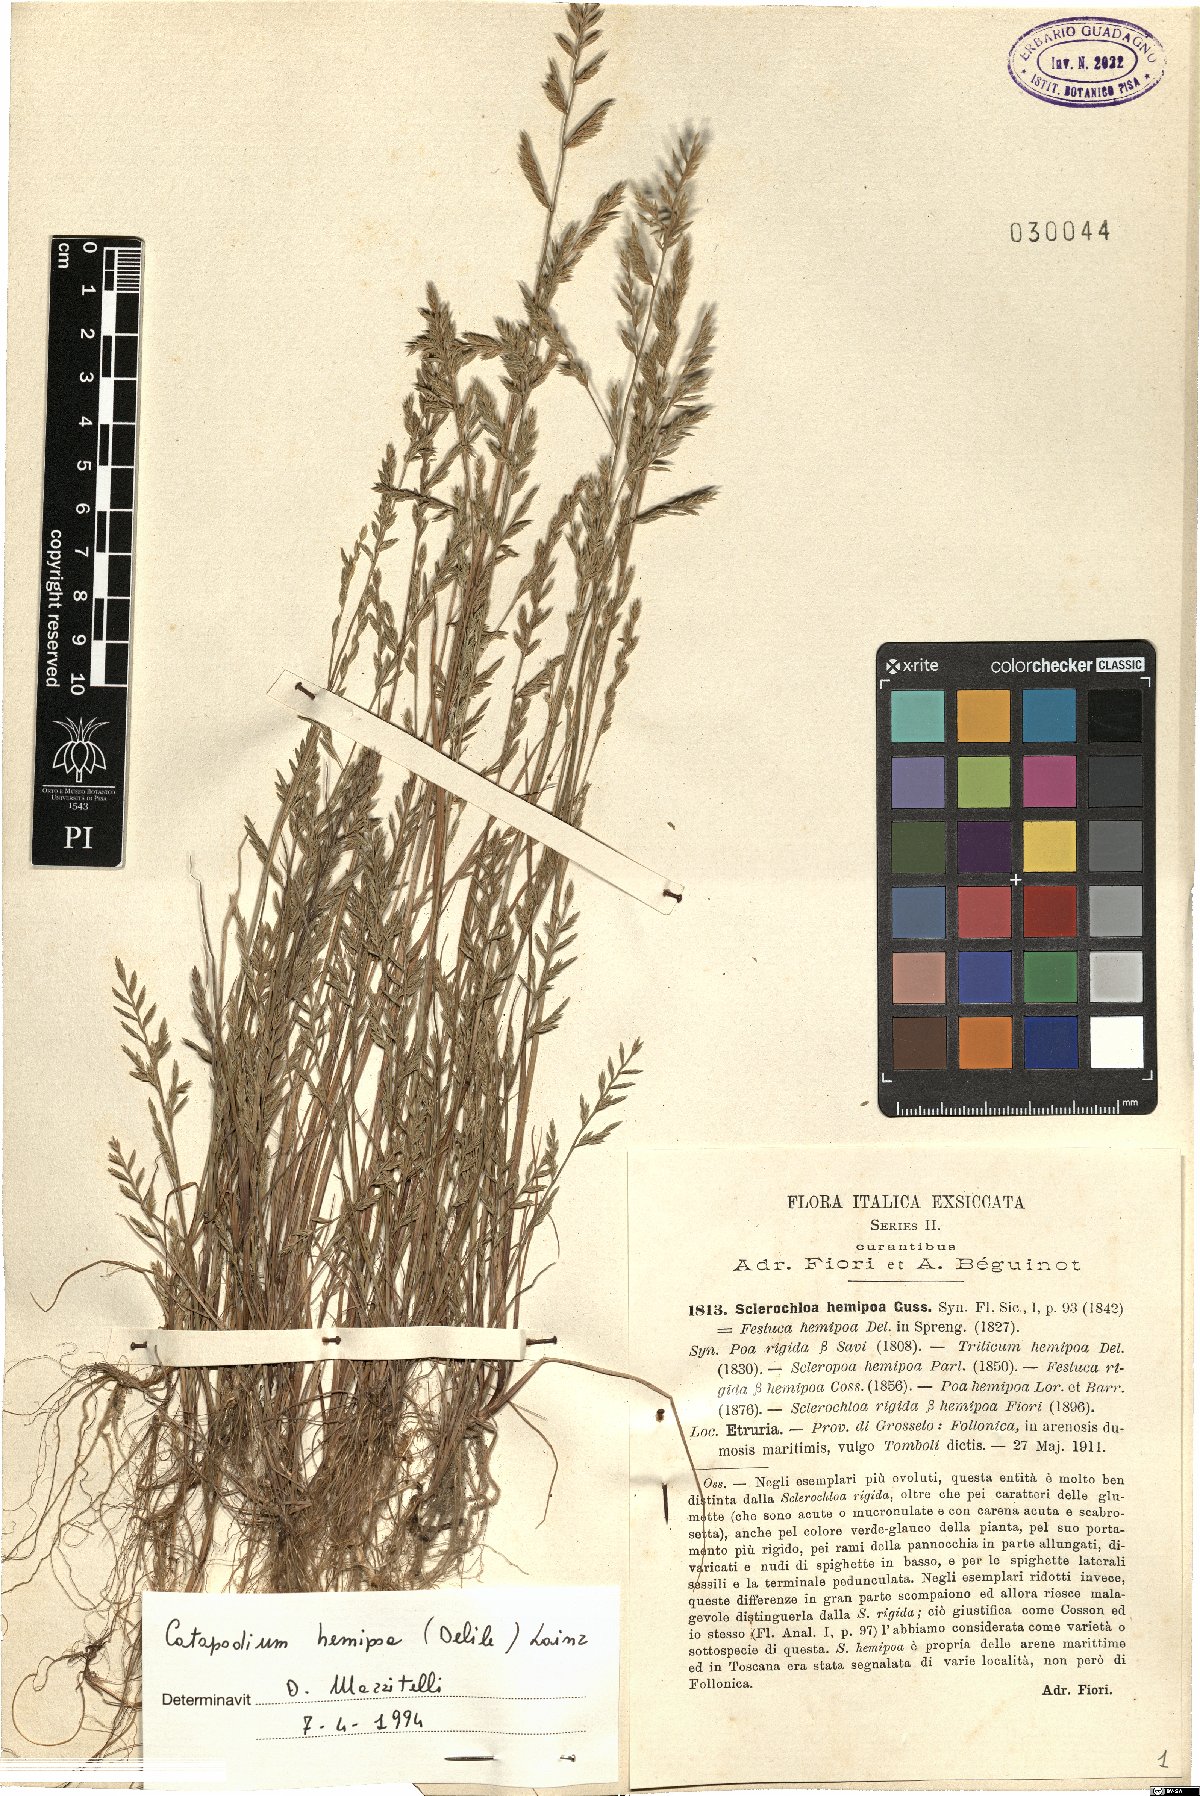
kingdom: Plantae
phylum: Tracheophyta
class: Liliopsida
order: Poales
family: Poaceae
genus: Catapodium
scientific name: Catapodium hemipoa
